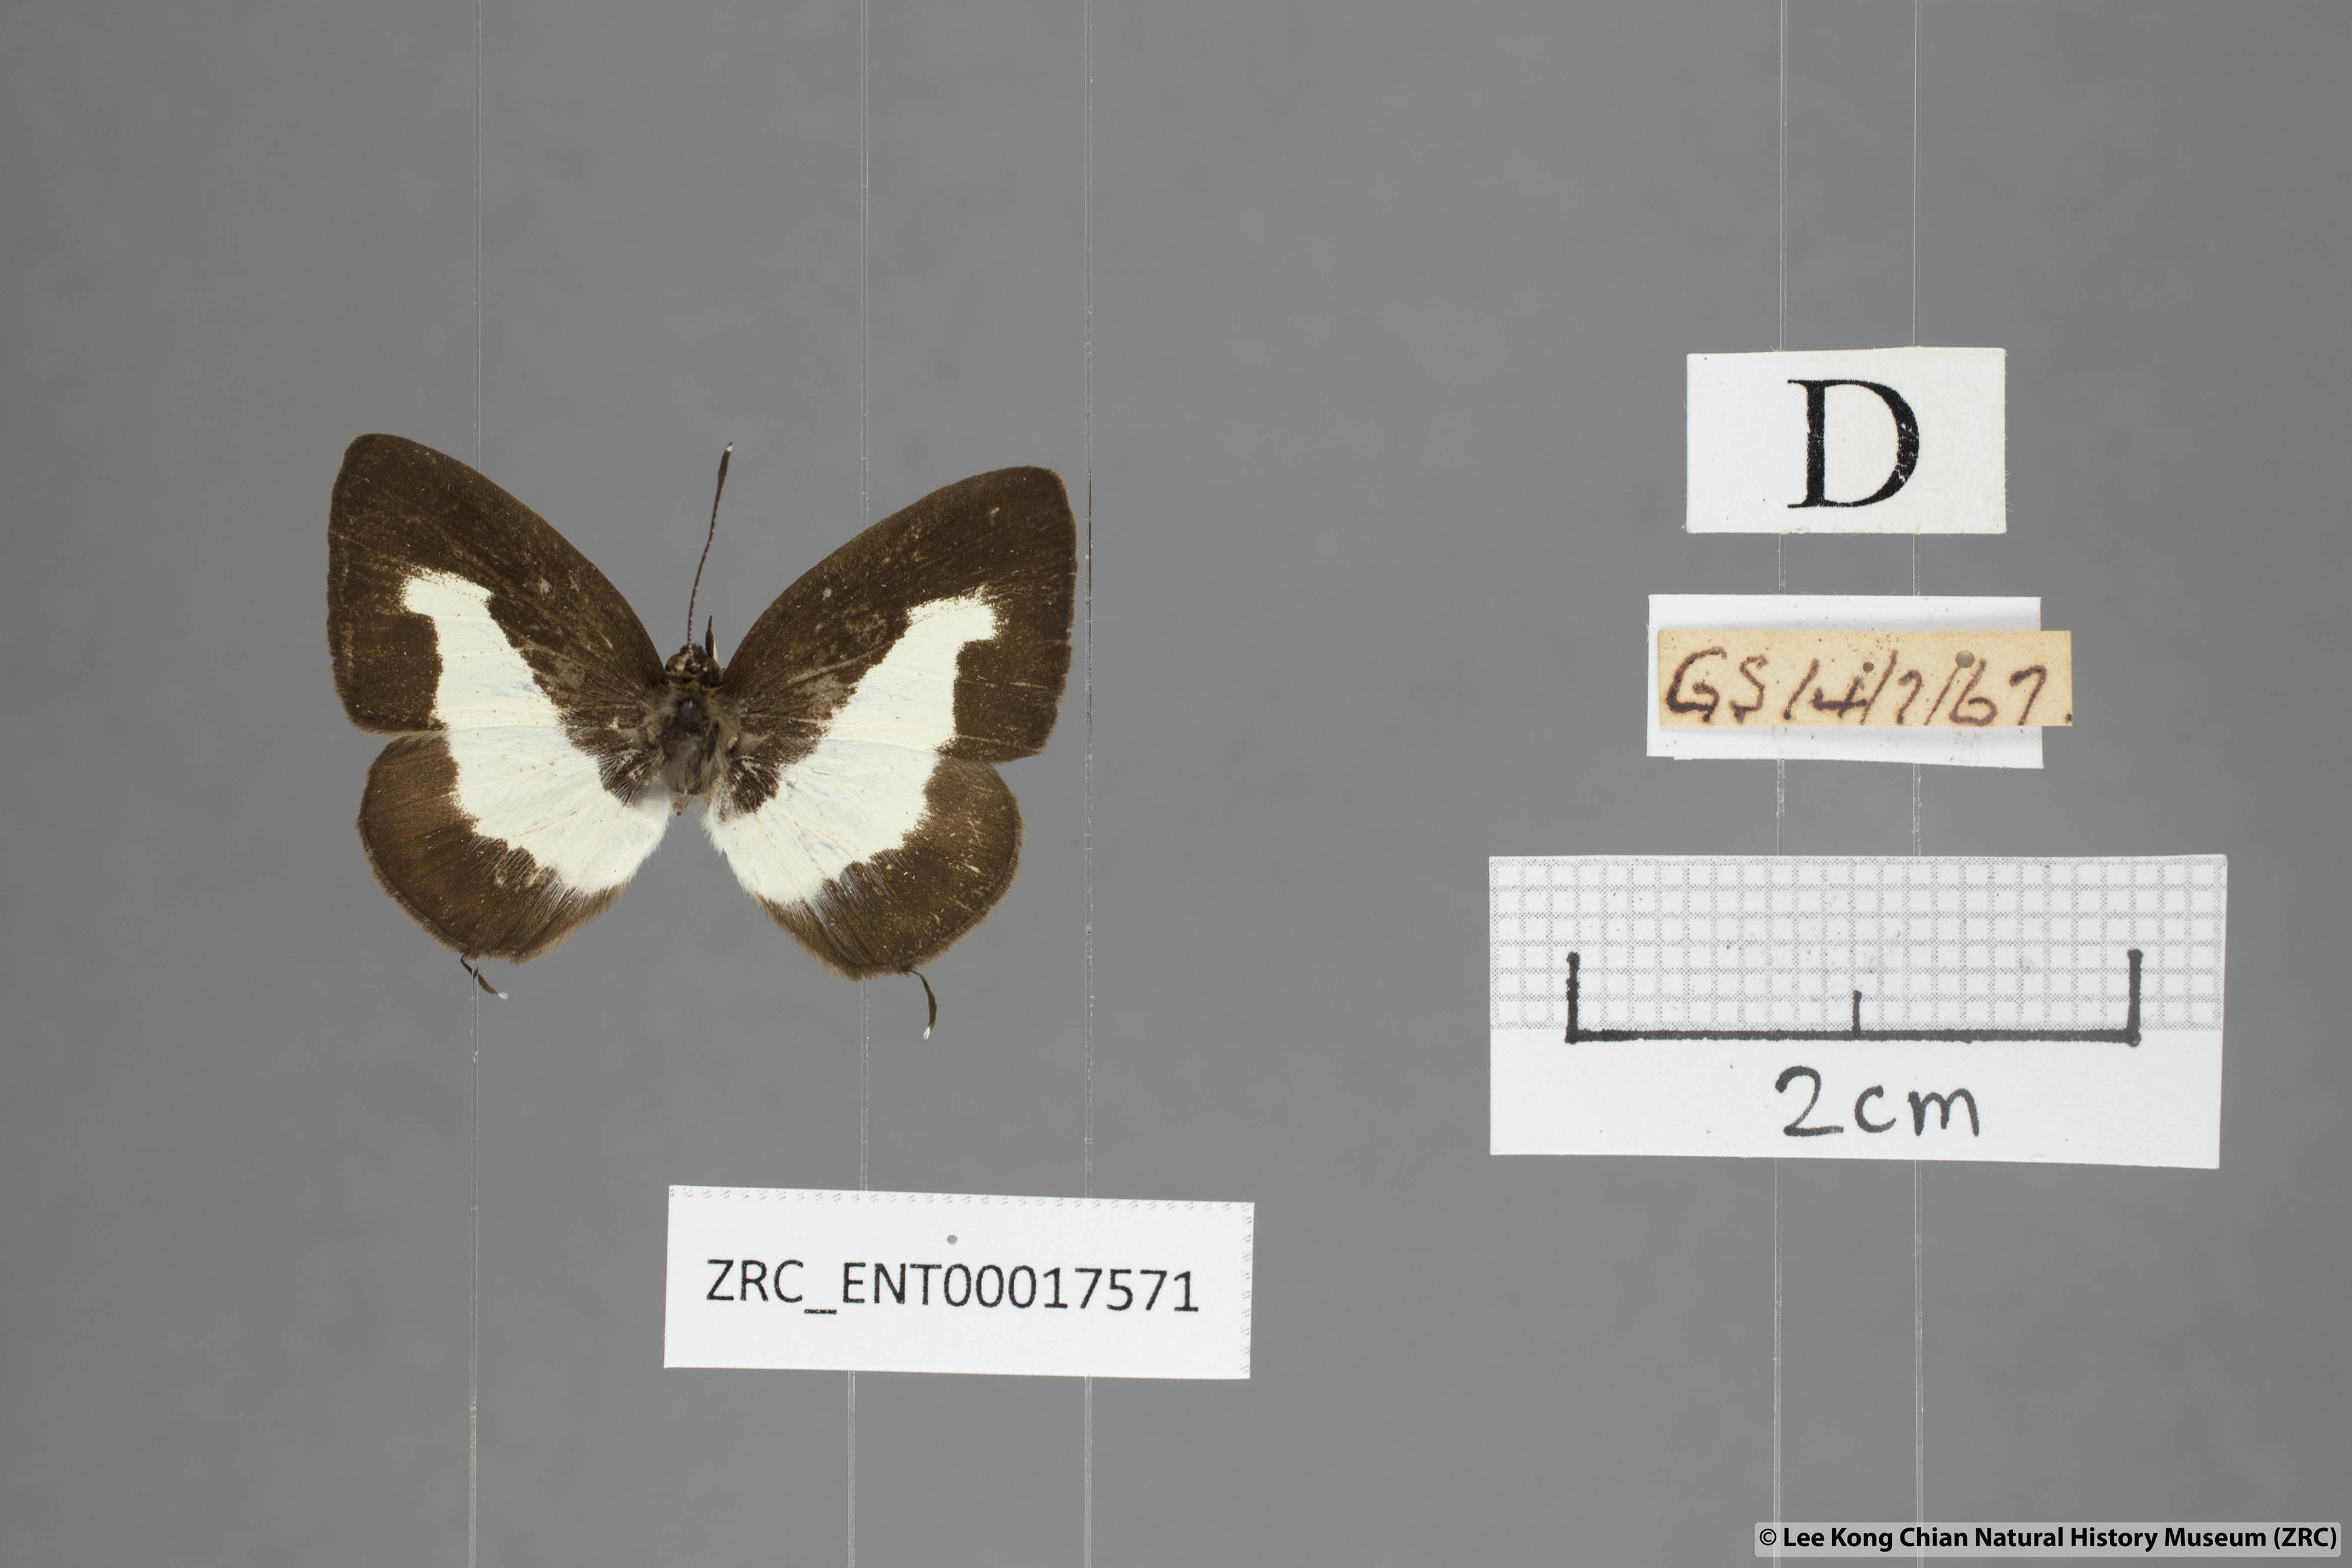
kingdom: Animalia
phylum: Arthropoda
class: Insecta
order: Lepidoptera
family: Lycaenidae
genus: Caleta
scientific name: Caleta elna
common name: Elbowed pierrot
